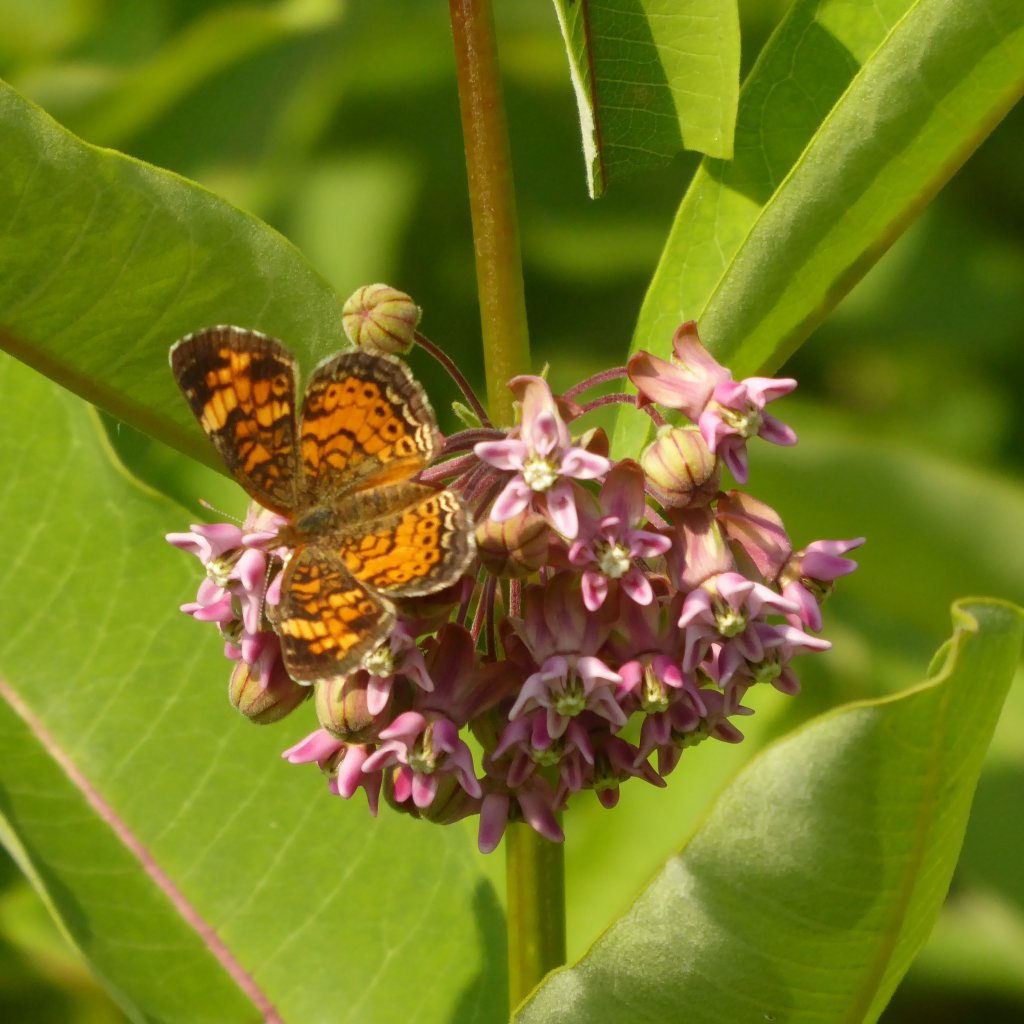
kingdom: Animalia
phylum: Arthropoda
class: Insecta
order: Lepidoptera
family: Nymphalidae
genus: Phyciodes
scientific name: Phyciodes tharos
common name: Pearl Crescent
